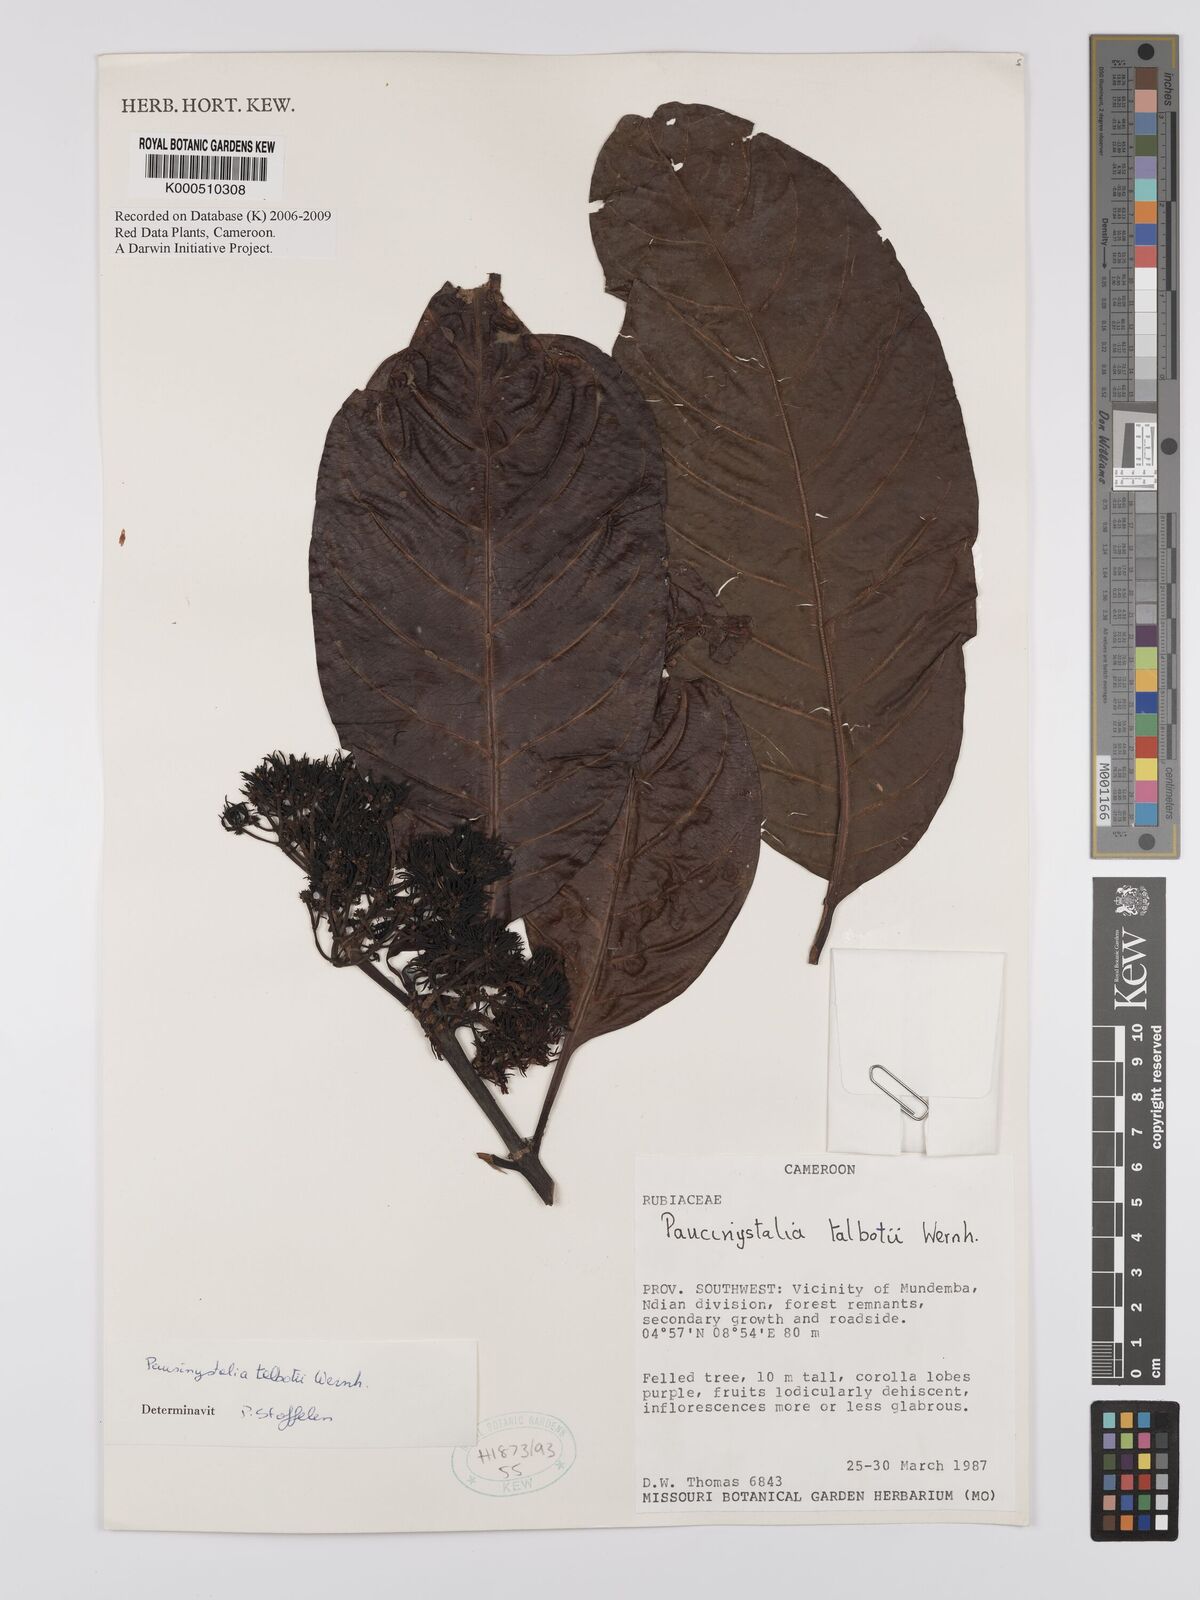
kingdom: Plantae
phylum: Tracheophyta
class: Magnoliopsida
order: Gentianales
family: Rubiaceae
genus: Corynanthe
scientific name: Corynanthe talbotii
